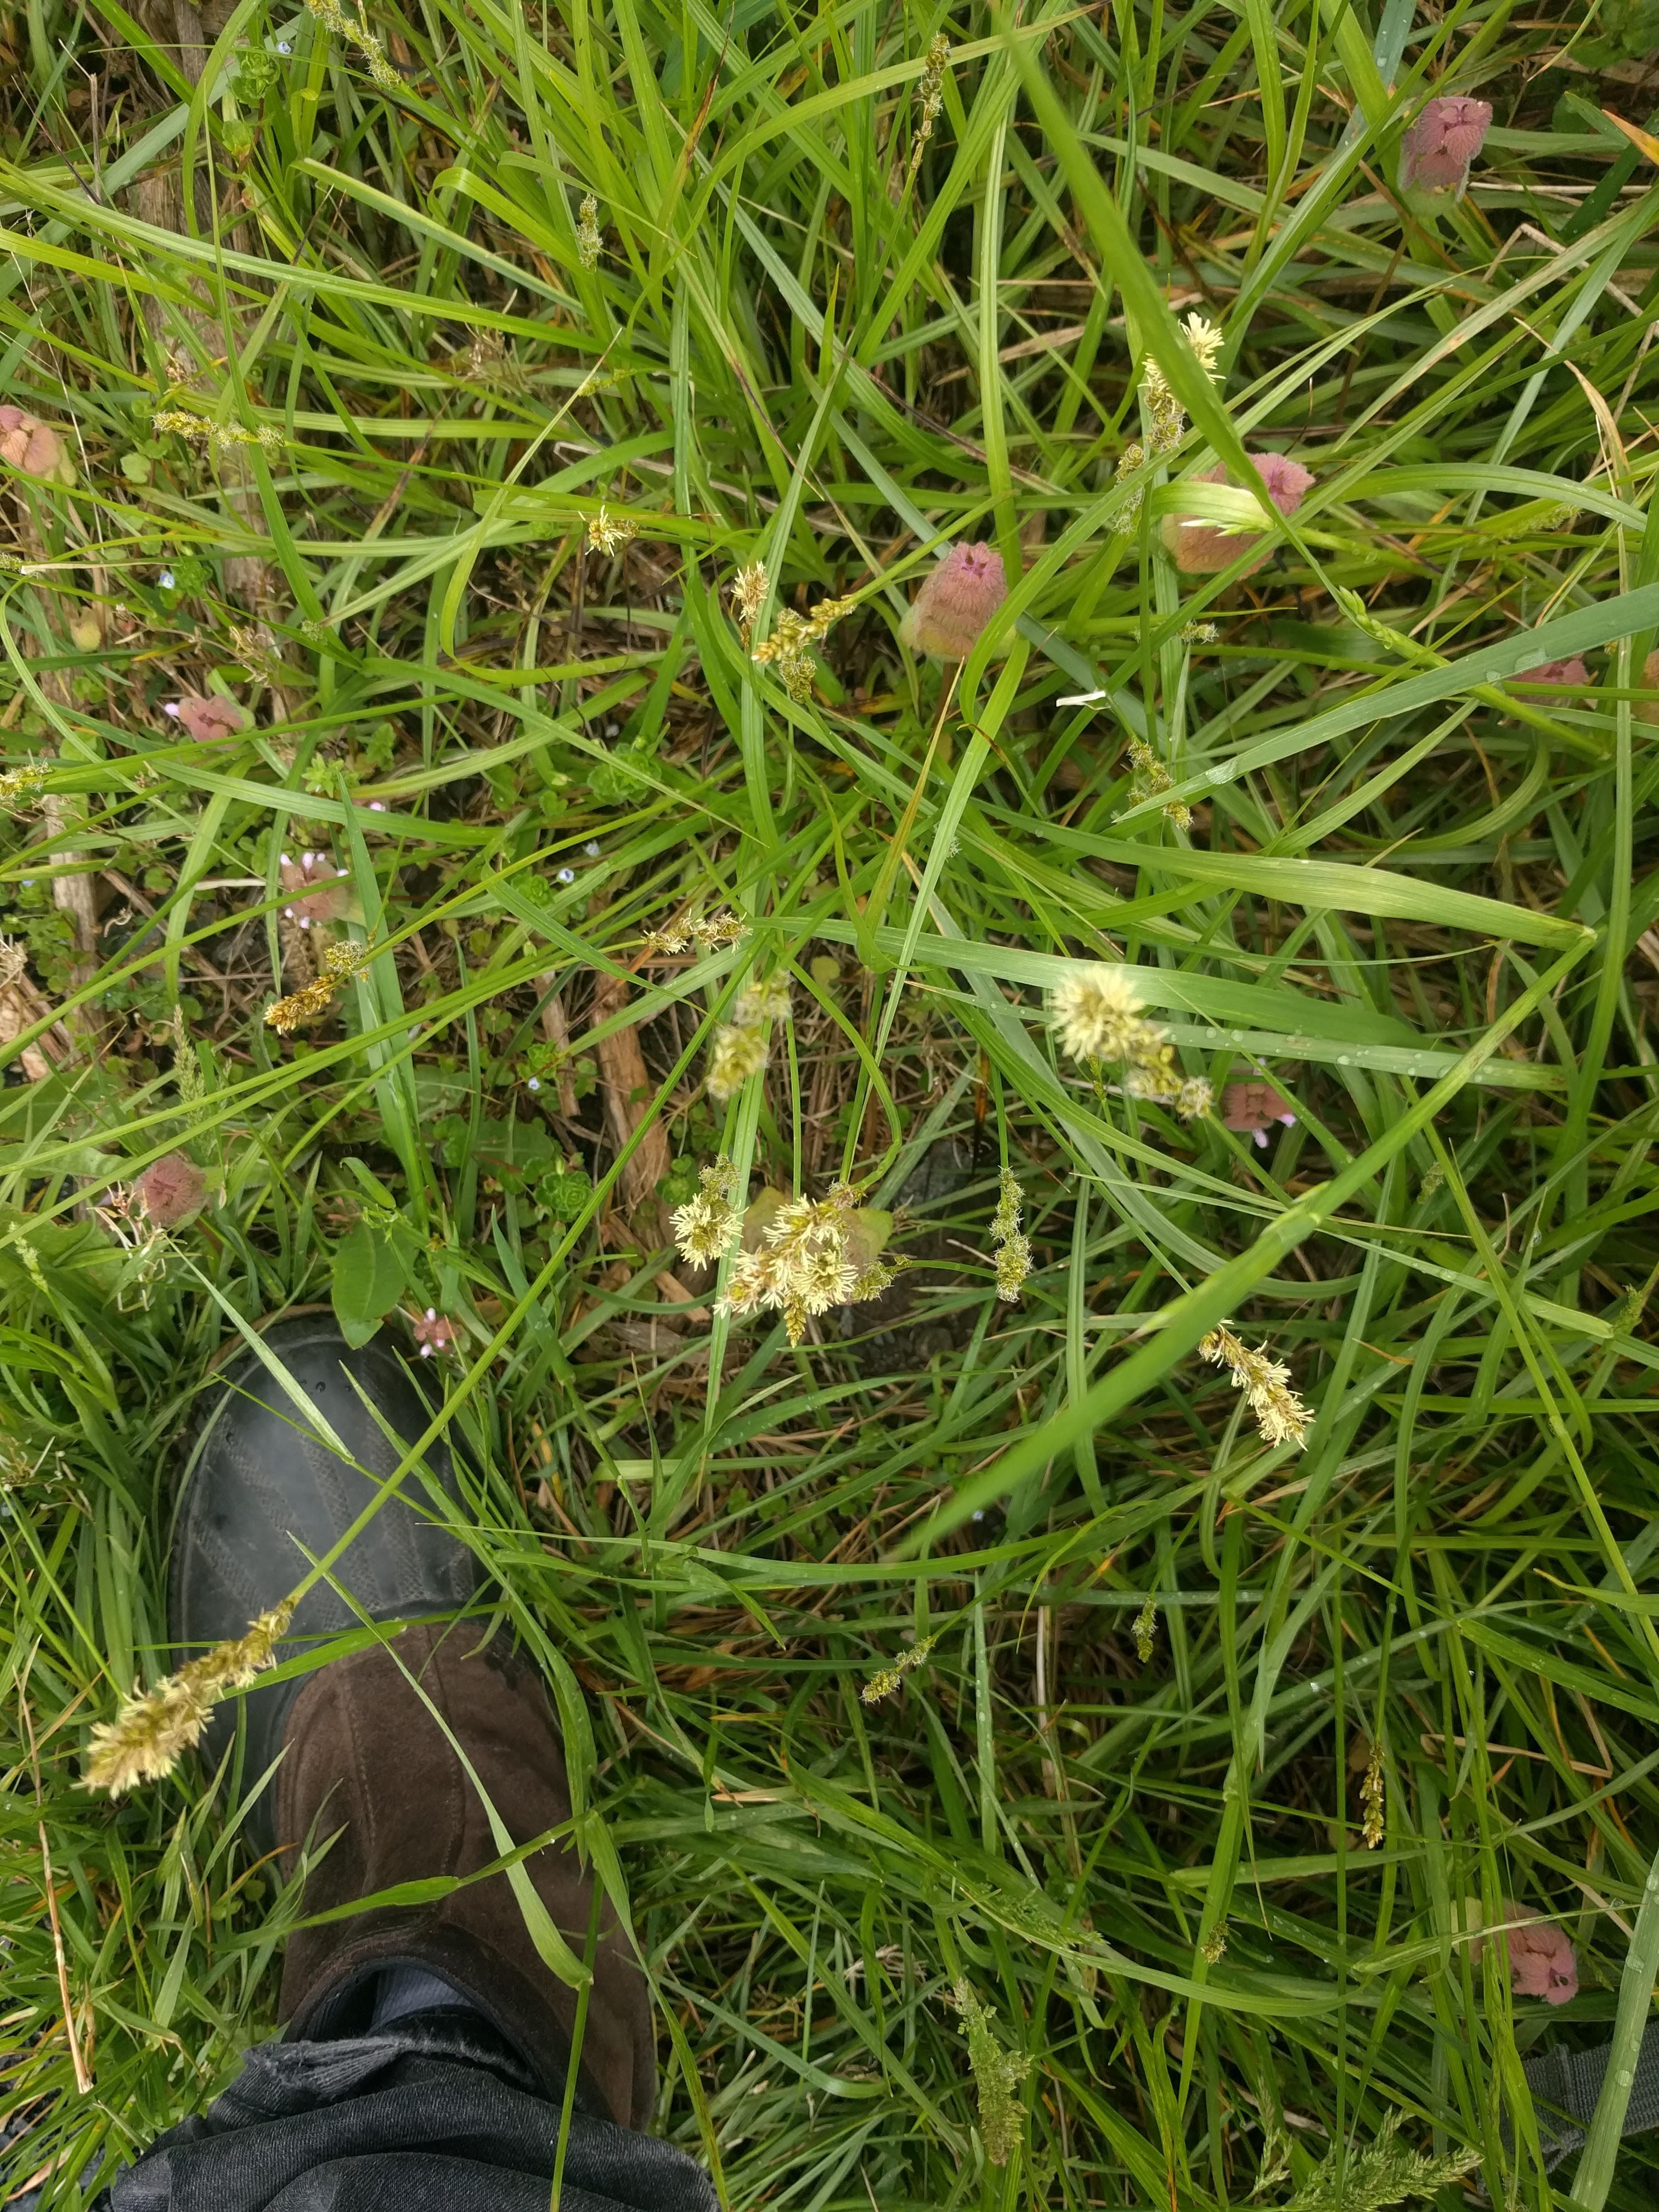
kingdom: Plantae
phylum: Tracheophyta
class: Liliopsida
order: Poales
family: Cyperaceae
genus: Carex
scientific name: Carex aggregata
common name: Crowded sedge
